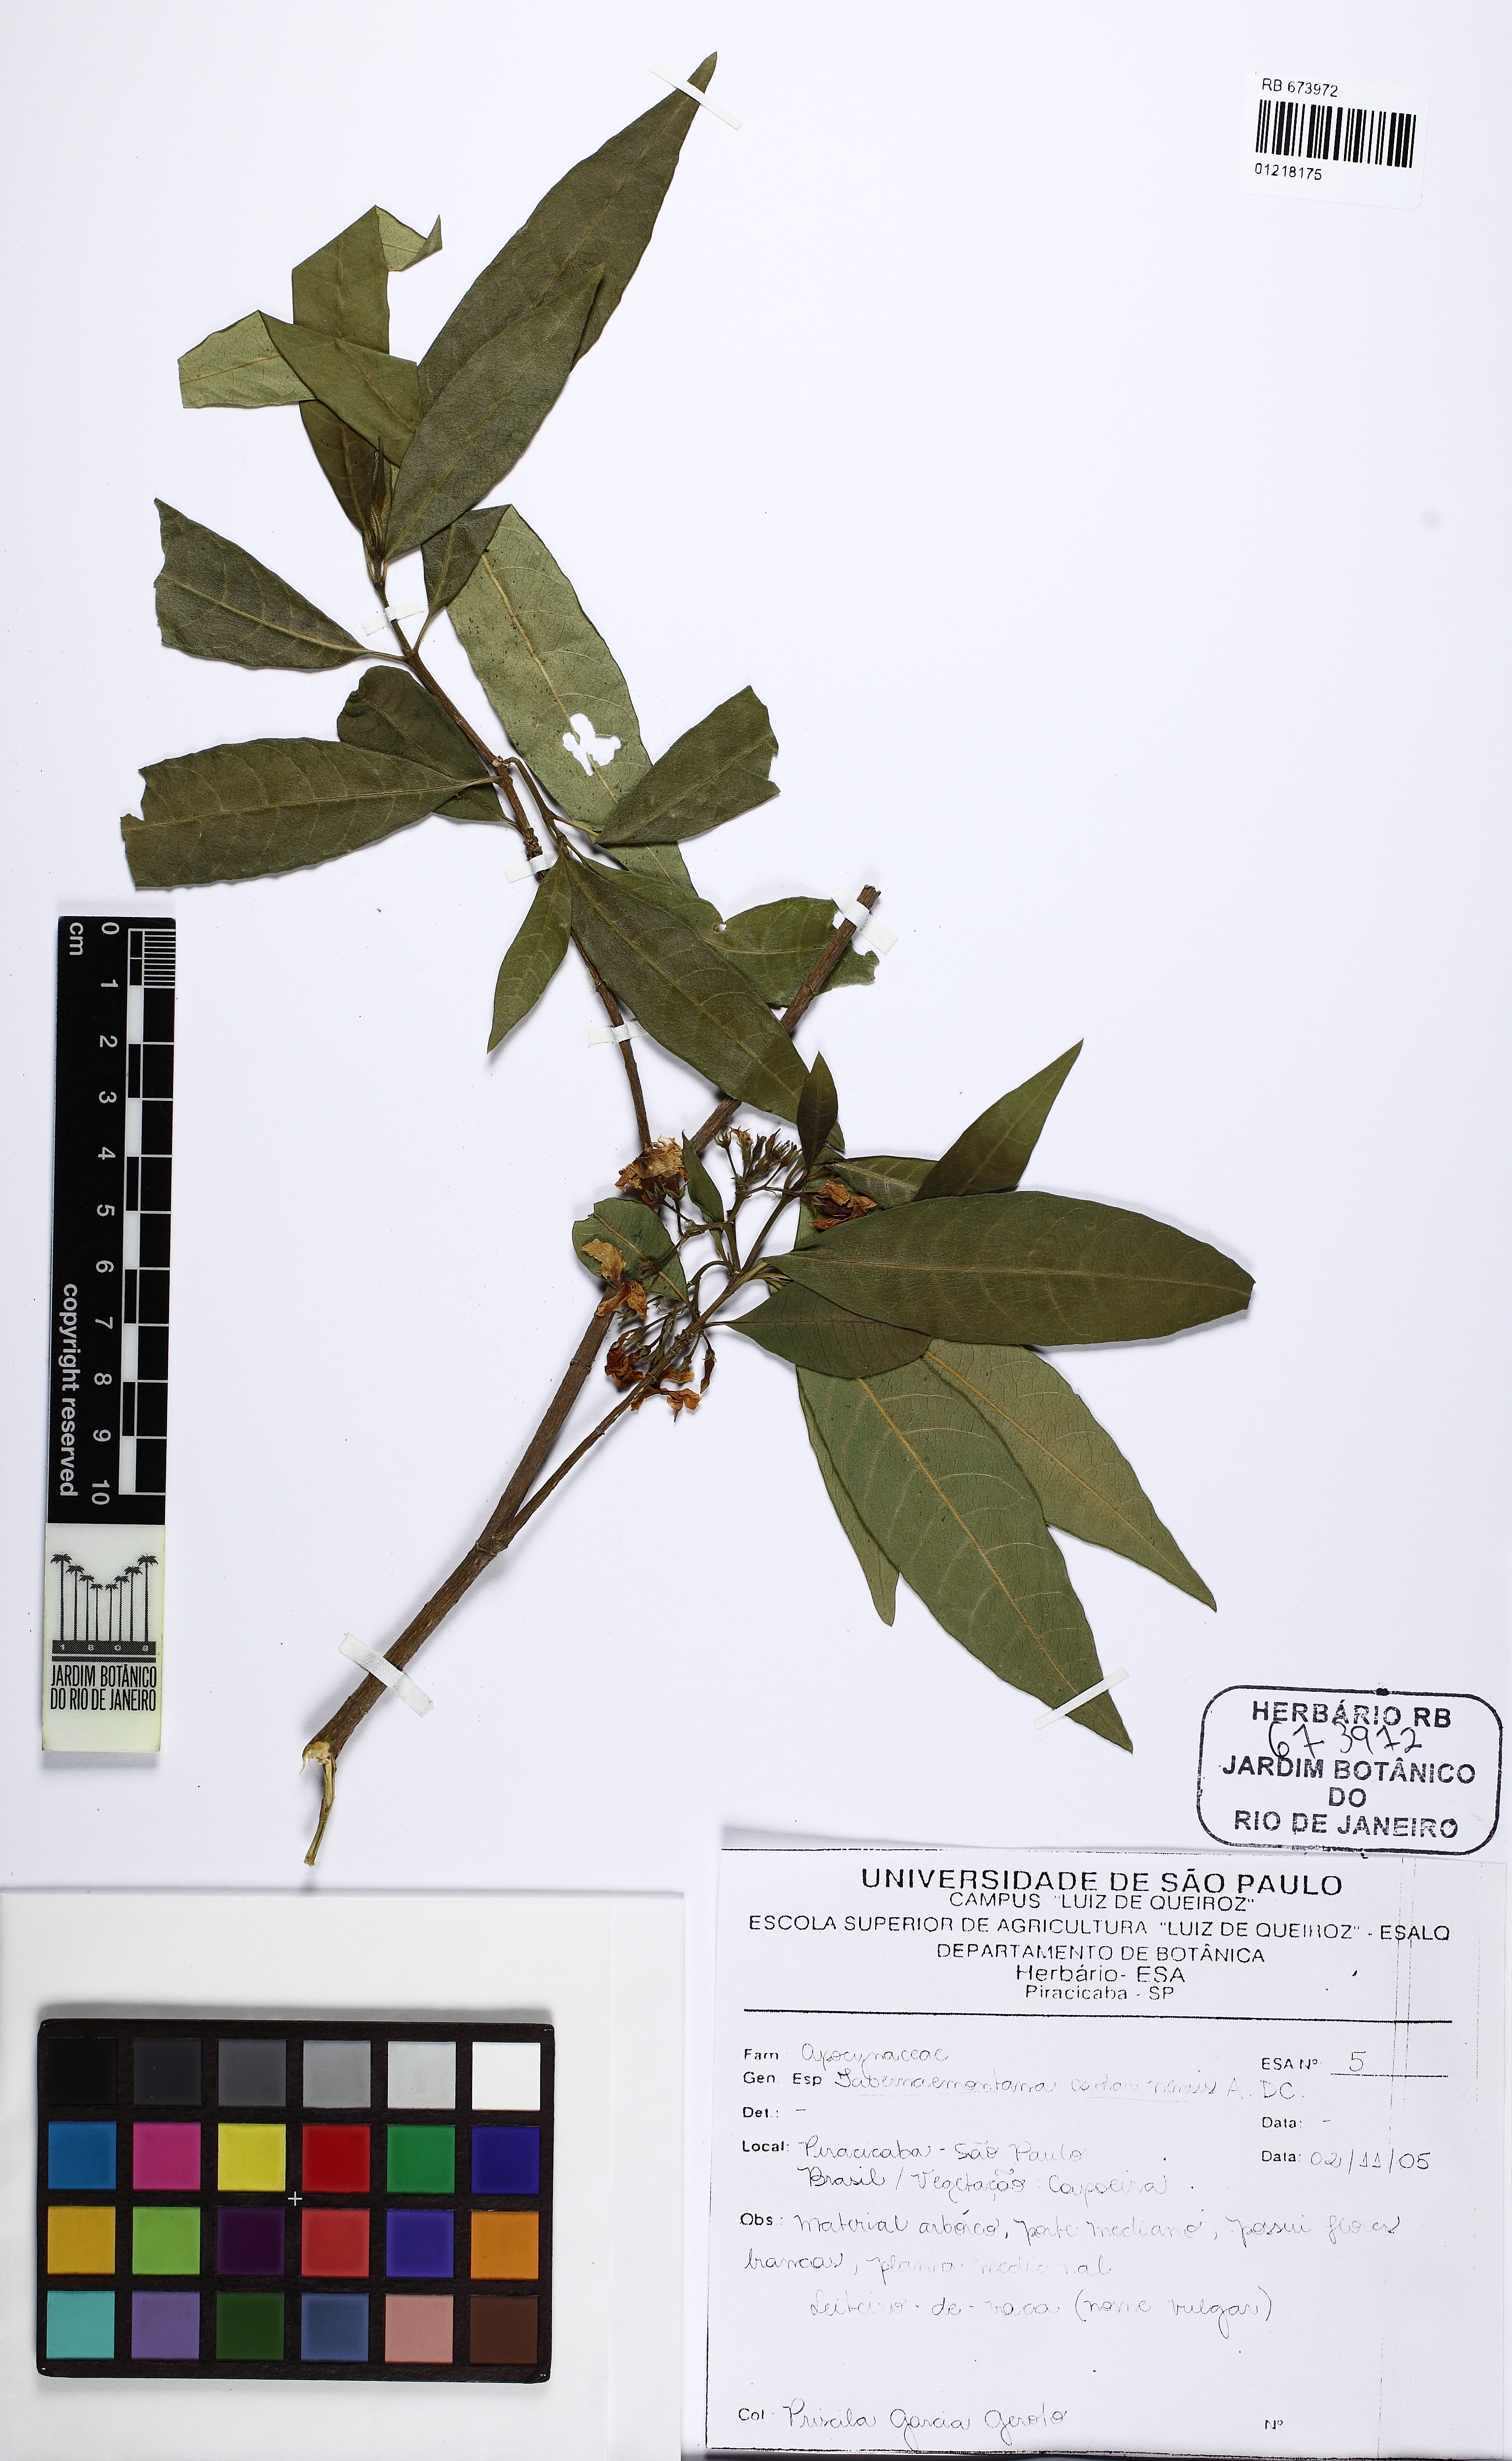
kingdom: Plantae
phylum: Tracheophyta
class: Magnoliopsida
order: Gentianales
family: Apocynaceae
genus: Tabernaemontana
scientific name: Tabernaemontana catharinensis
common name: Pinwheel-flower
